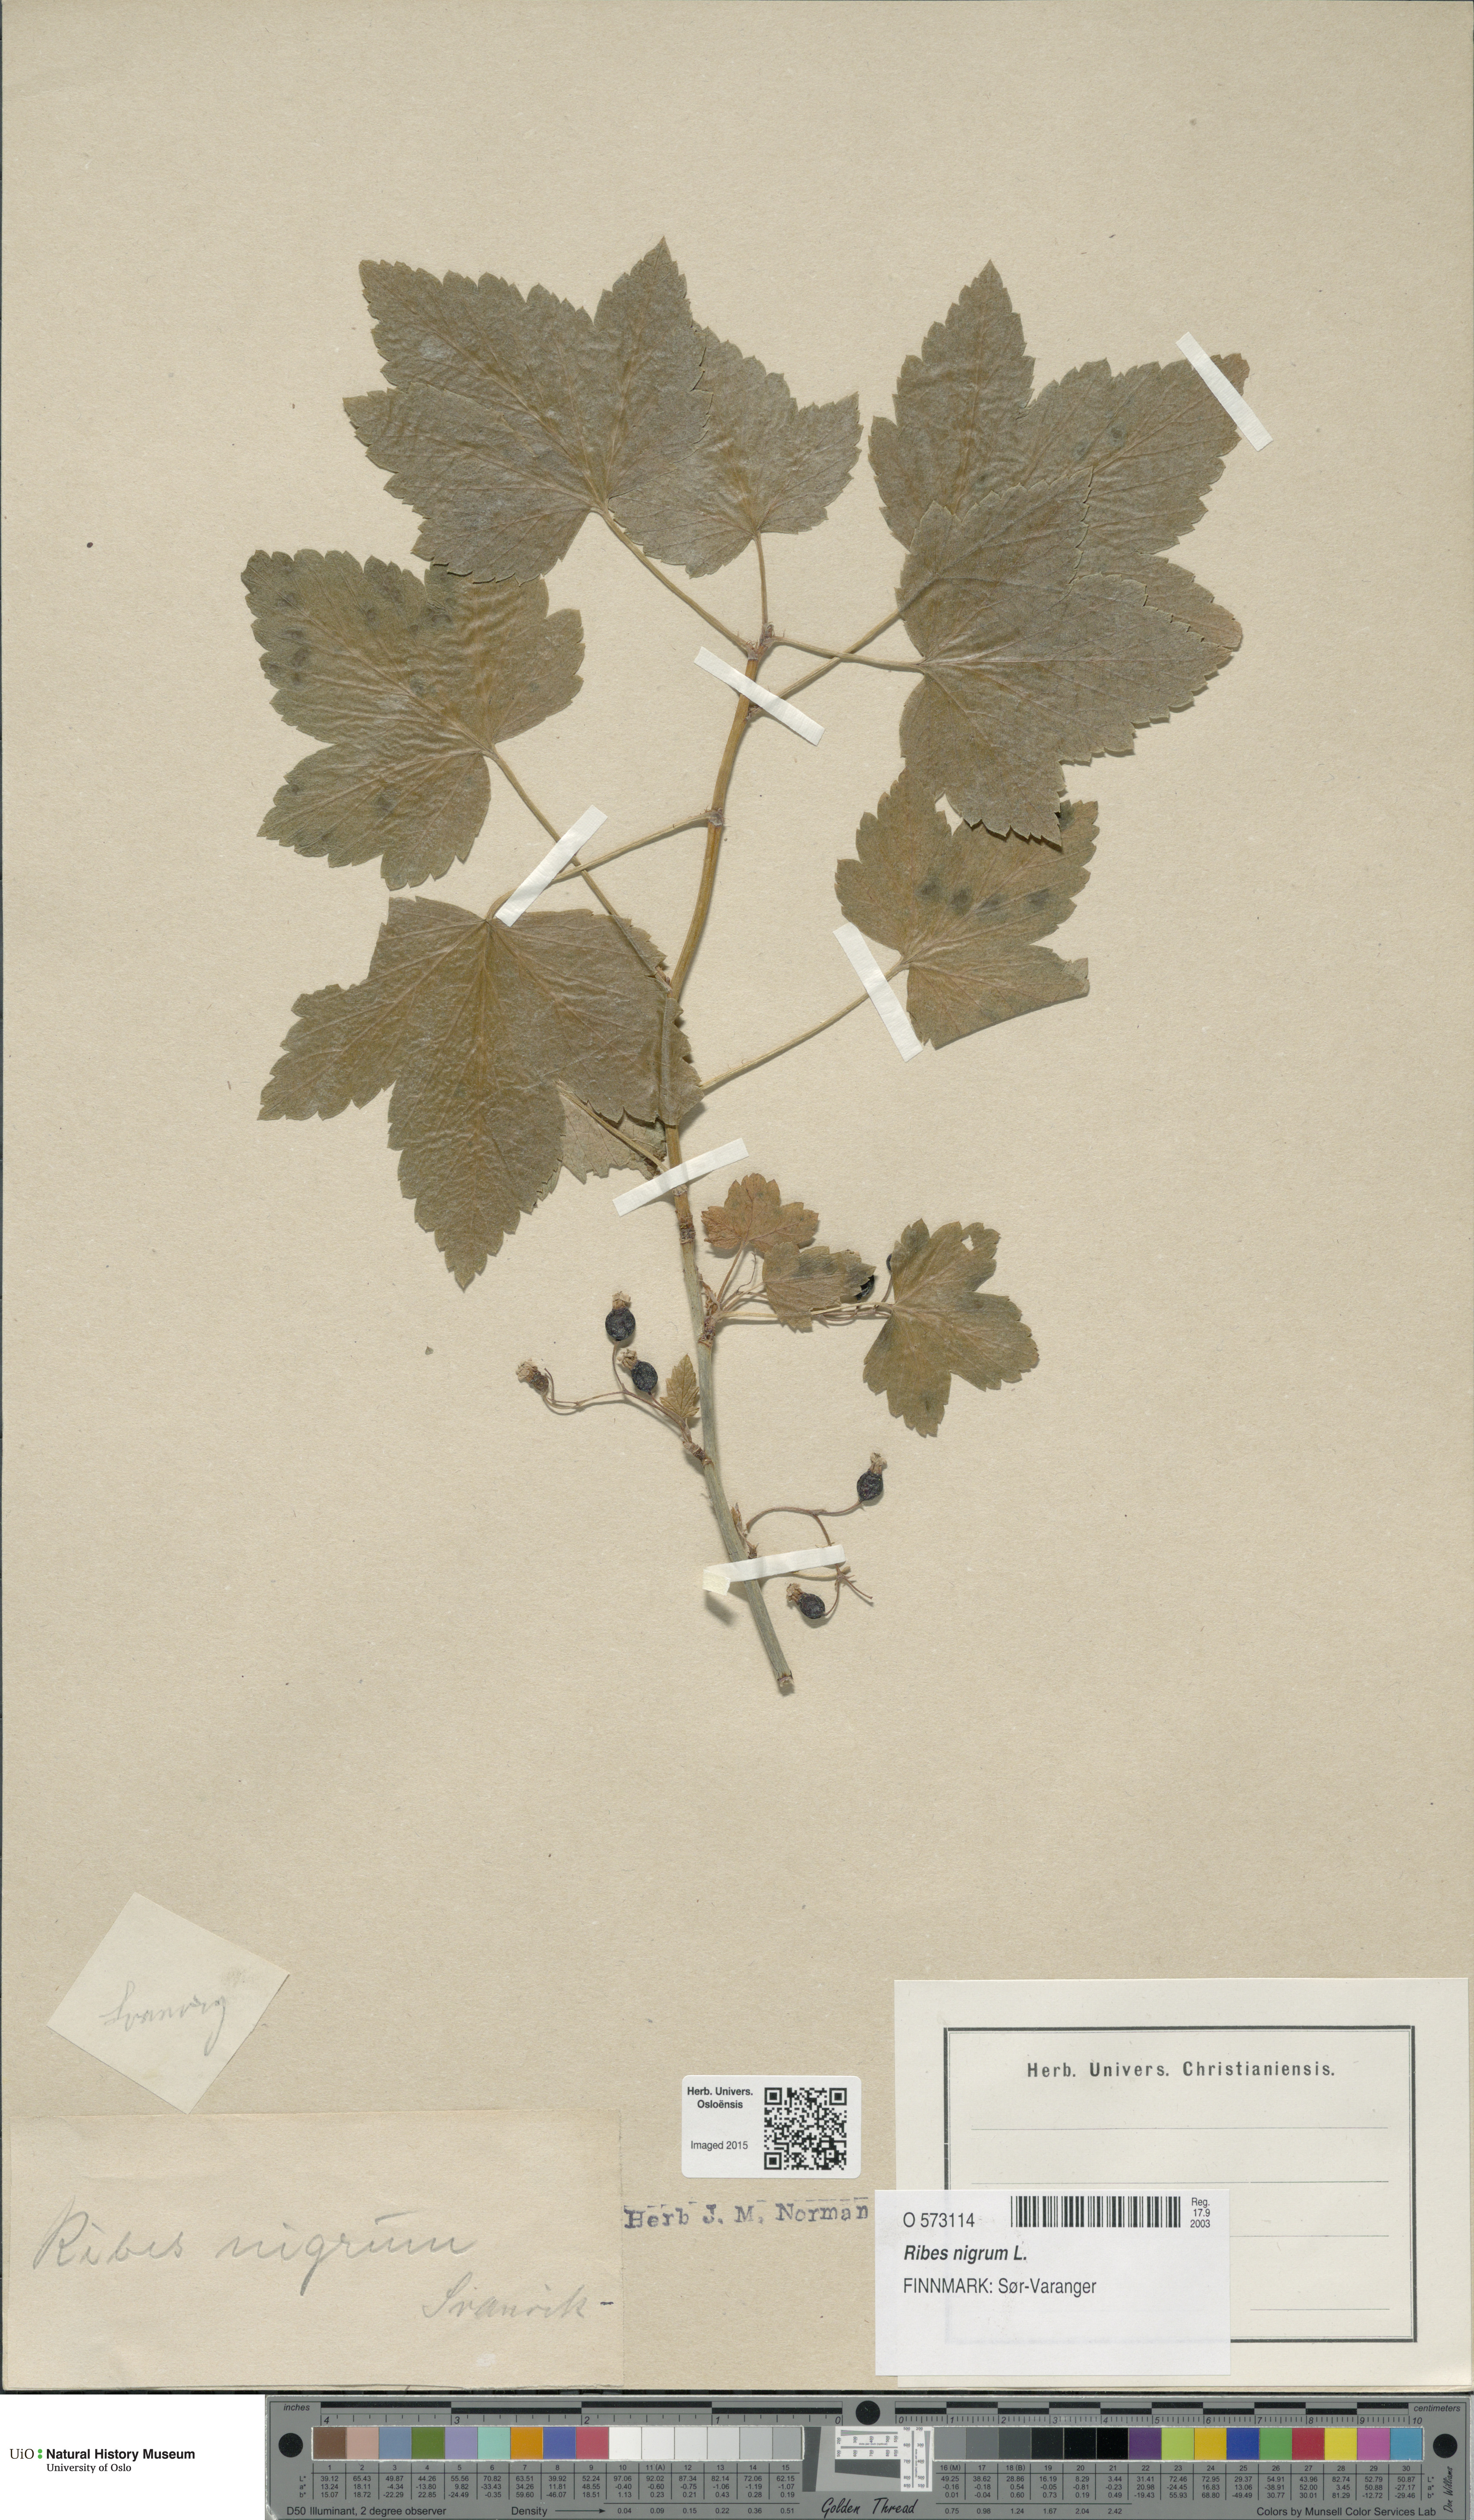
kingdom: Plantae
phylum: Tracheophyta
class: Magnoliopsida
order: Saxifragales
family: Grossulariaceae
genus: Ribes
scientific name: Ribes nigrum
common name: Black currant
